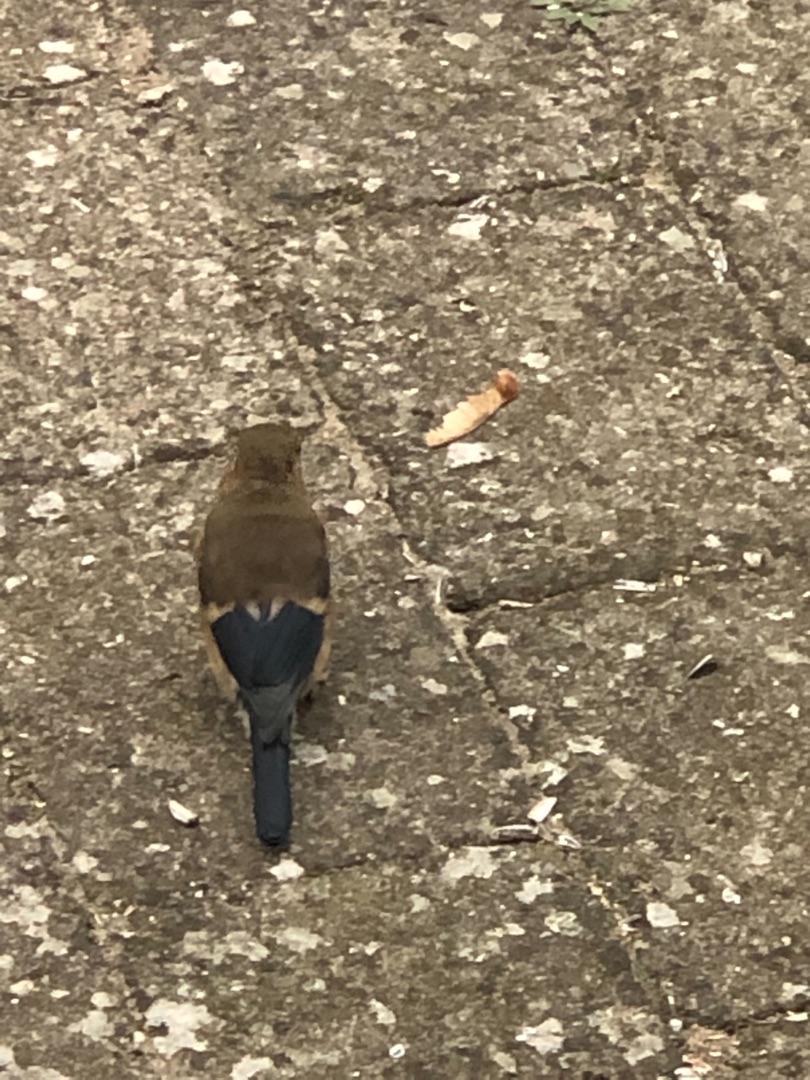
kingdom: Animalia
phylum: Chordata
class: Aves
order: Passeriformes
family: Fringillidae
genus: Pyrrhula
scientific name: Pyrrhula pyrrhula
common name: Dompap
